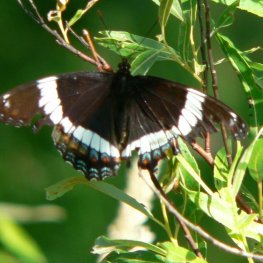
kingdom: Animalia
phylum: Arthropoda
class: Insecta
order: Lepidoptera
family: Nymphalidae
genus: Limenitis
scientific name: Limenitis arthemis
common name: Red-spotted Admiral
